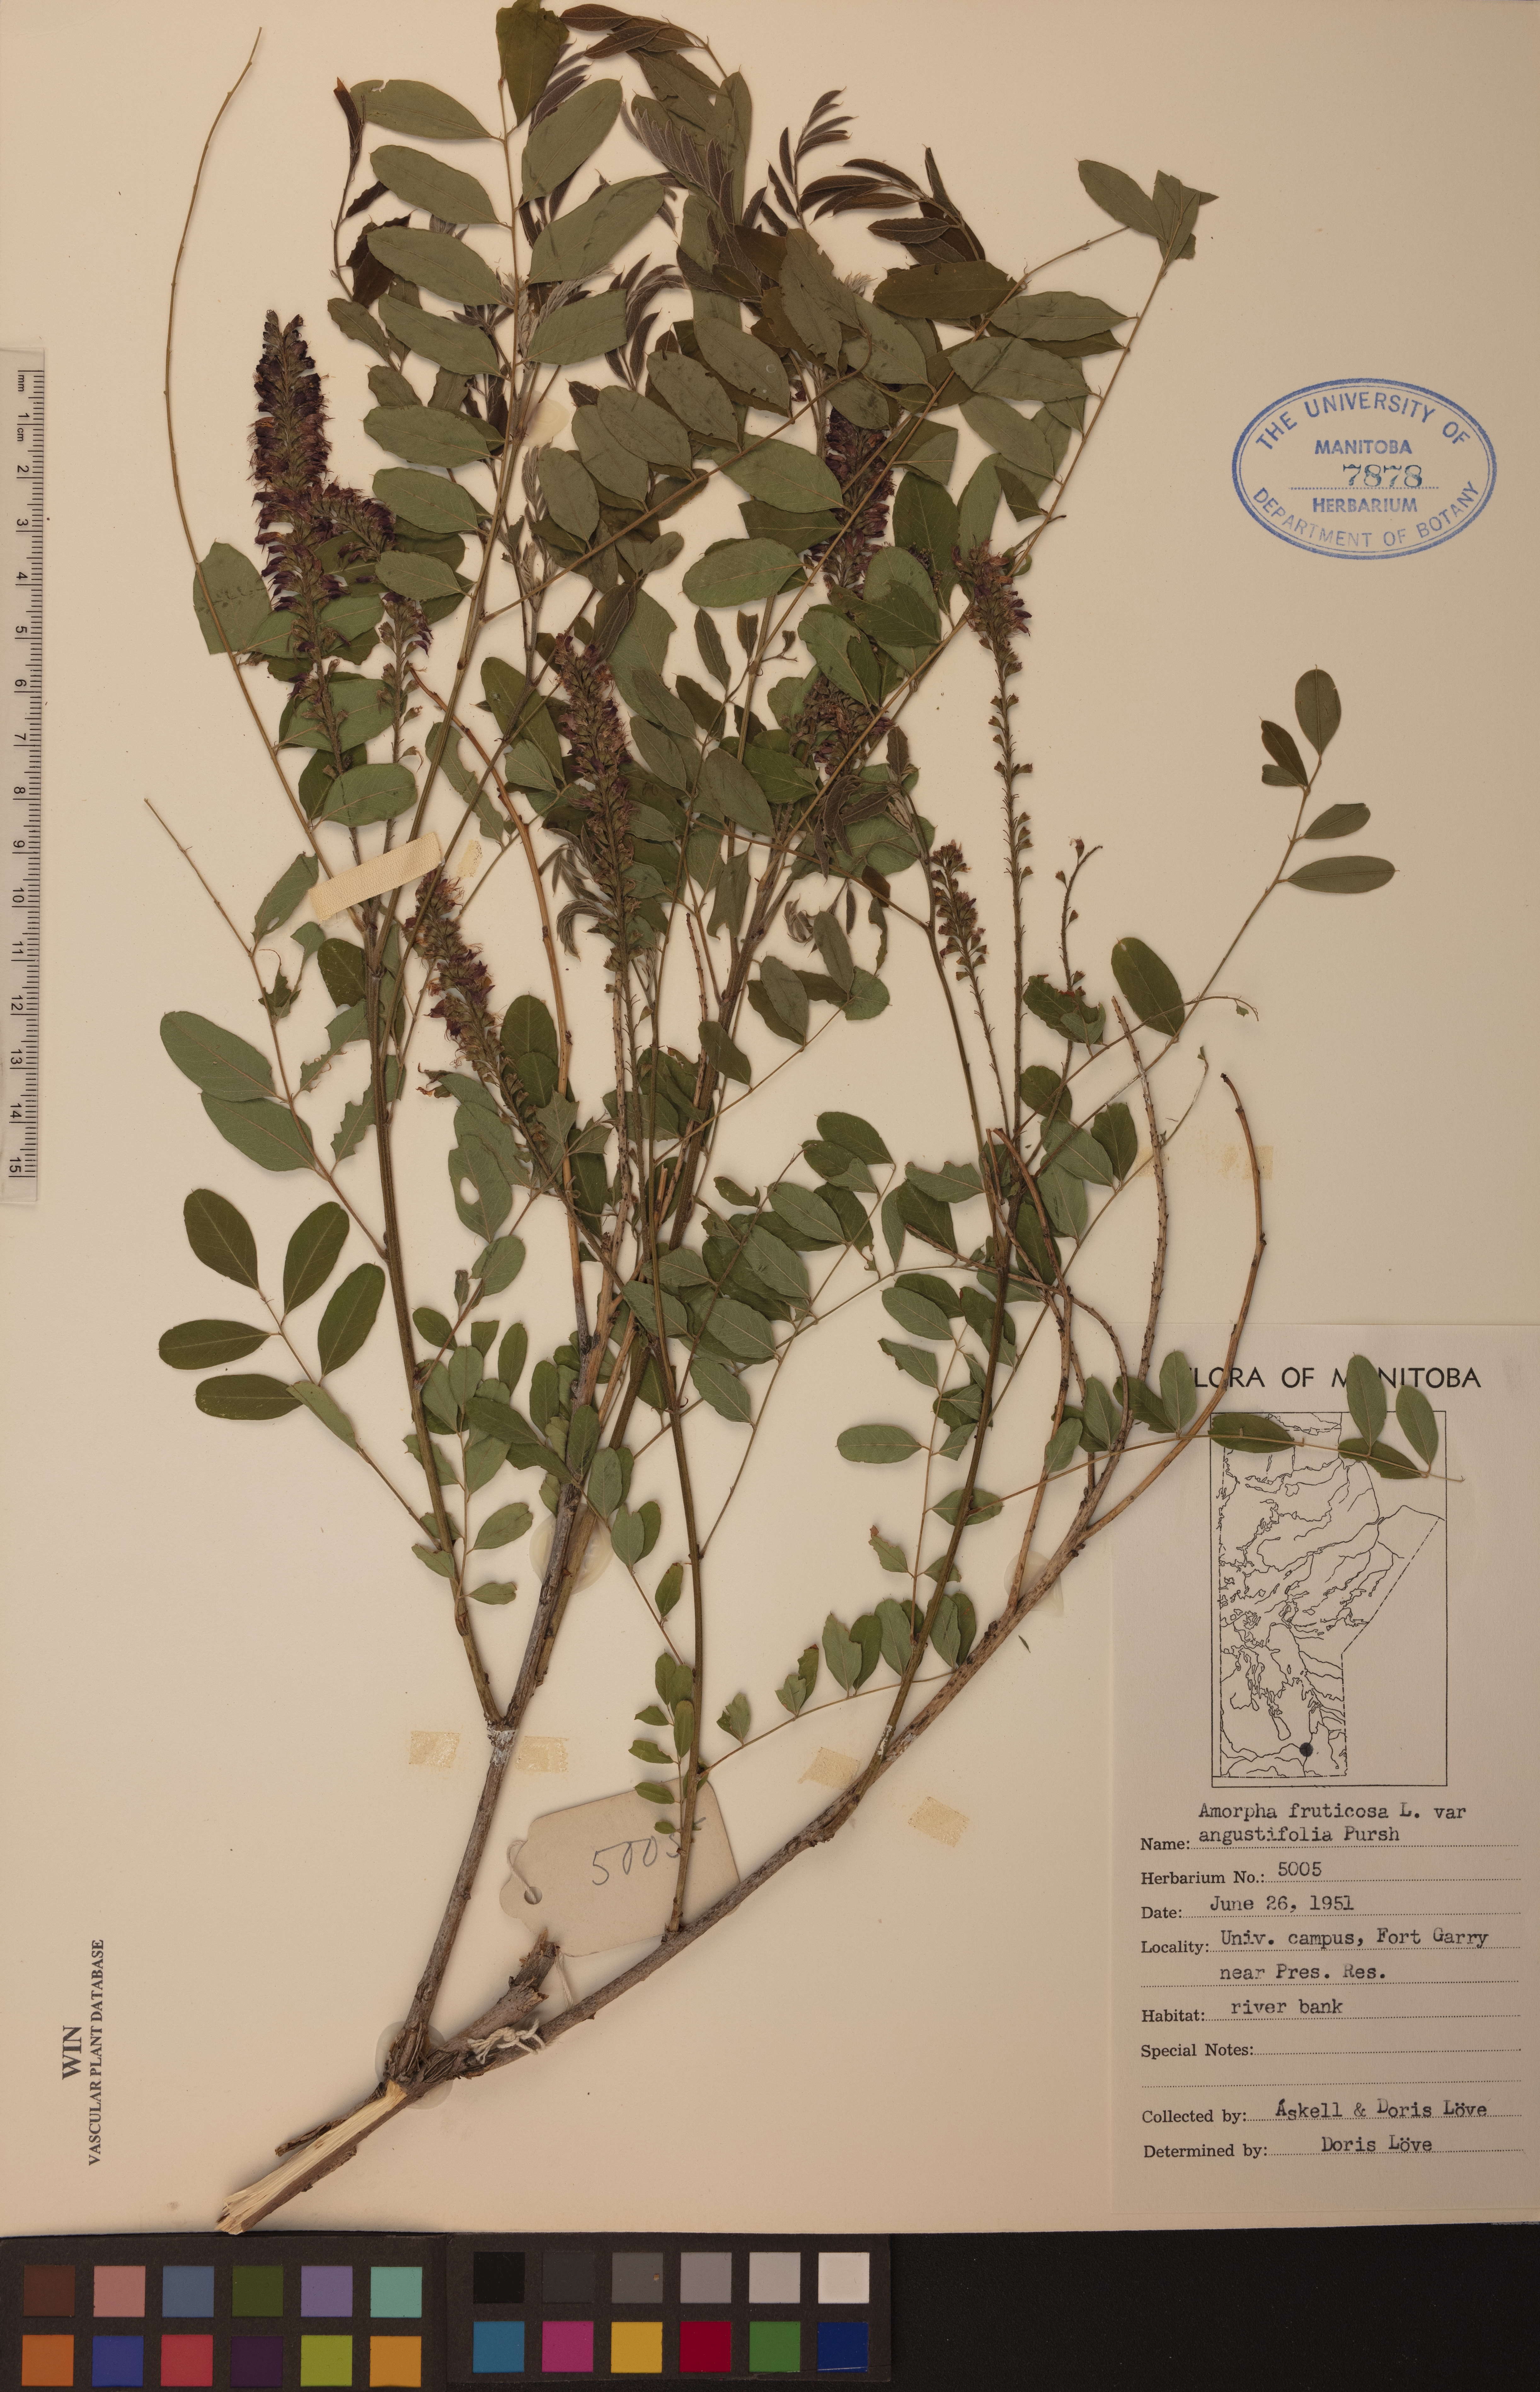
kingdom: Plantae
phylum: Tracheophyta
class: Magnoliopsida
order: Fabales
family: Fabaceae
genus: Amorpha
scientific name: Amorpha fruticosa
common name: False indigo
